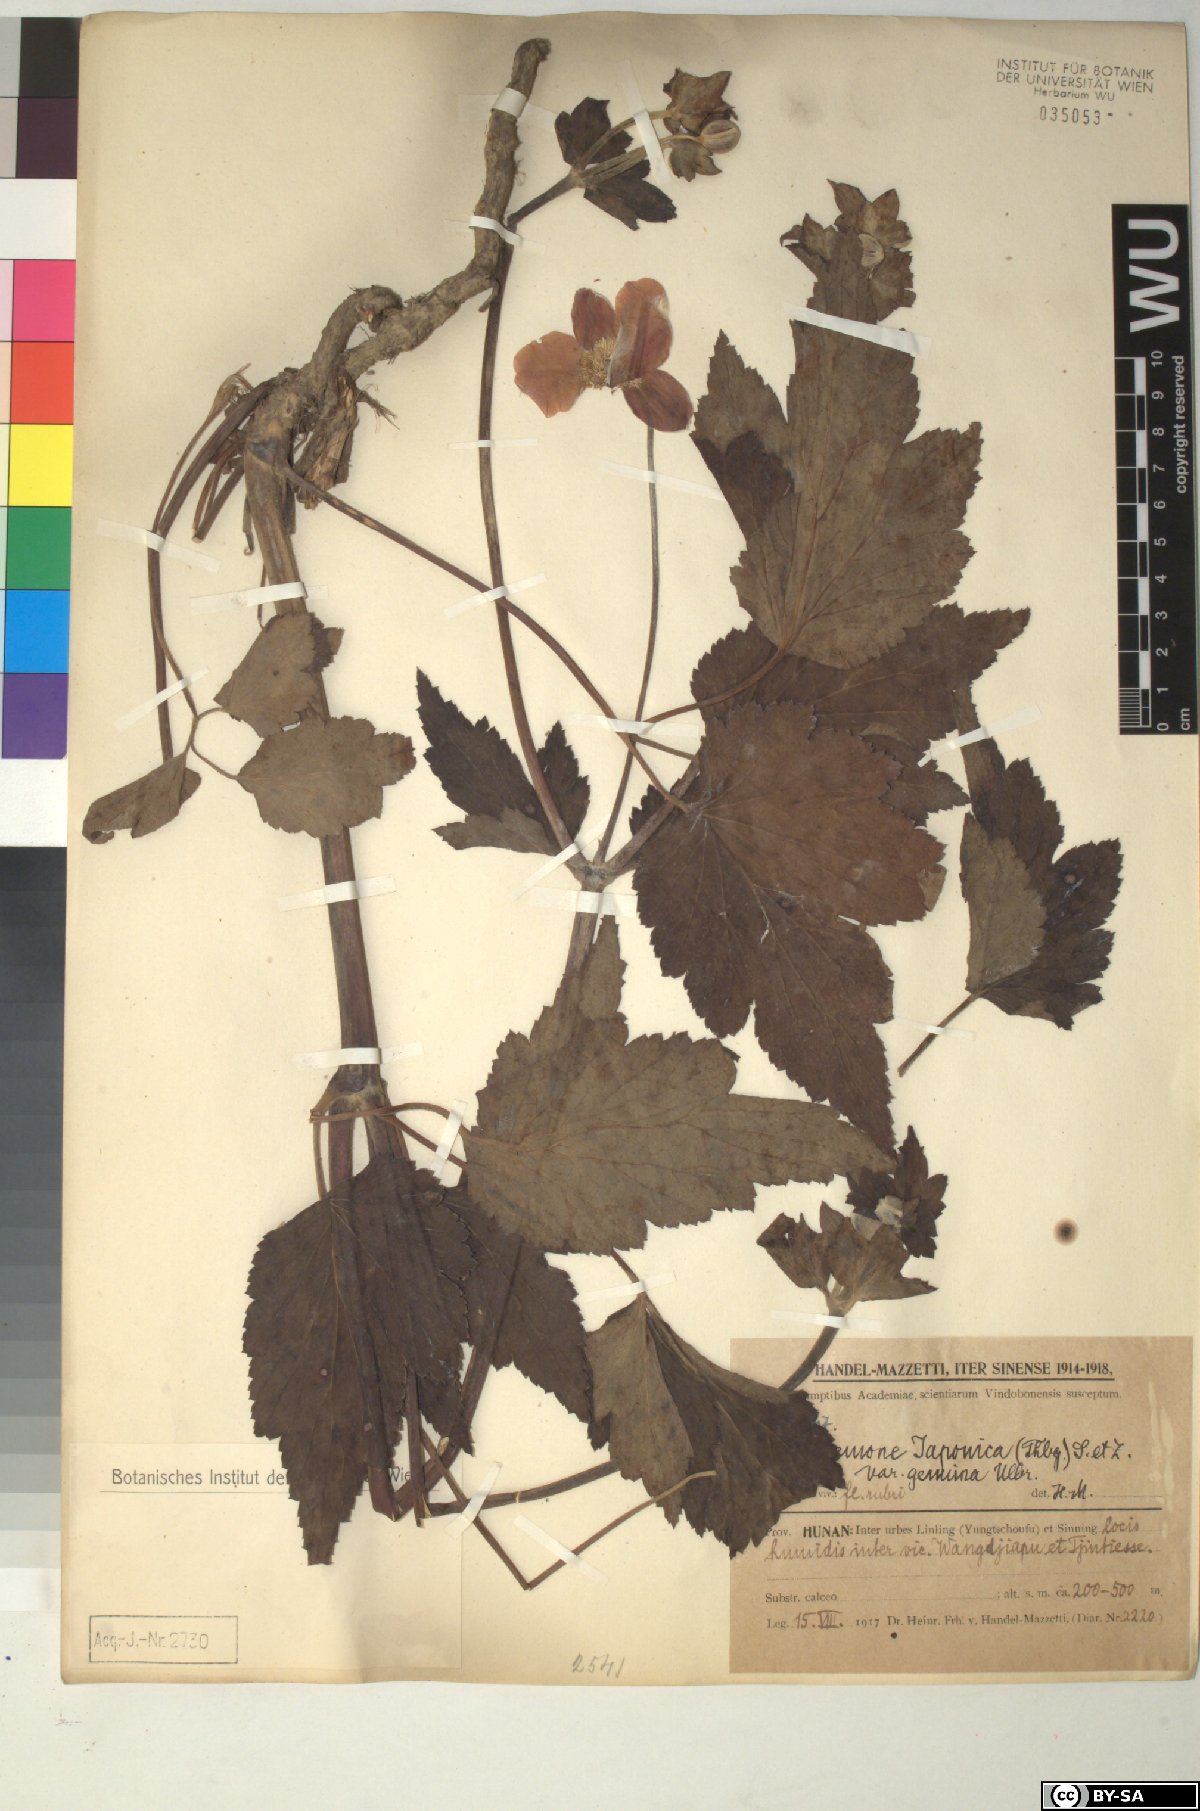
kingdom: Plantae
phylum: Tracheophyta
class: Magnoliopsida
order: Ranunculales
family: Ranunculaceae
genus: Eriocapitella
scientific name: Eriocapitella japonica
